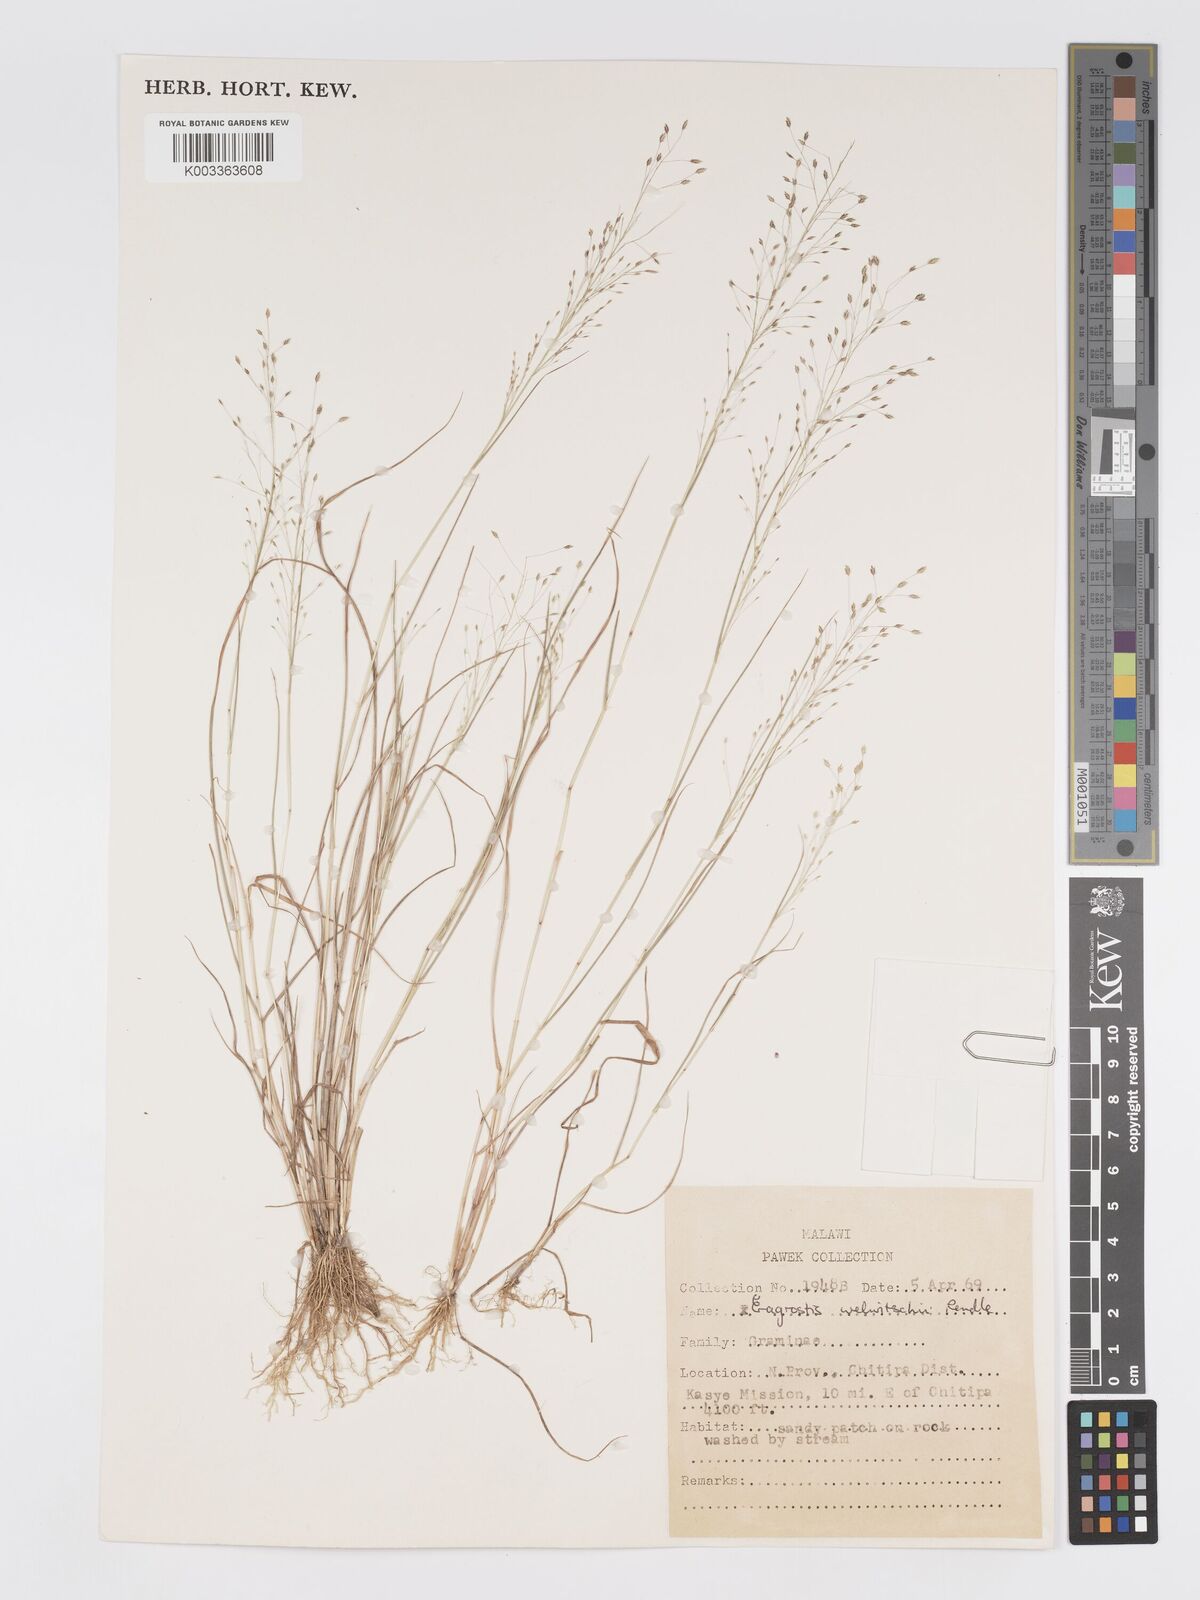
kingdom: Plantae
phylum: Tracheophyta
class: Liliopsida
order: Poales
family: Poaceae
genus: Eragrostis
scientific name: Eragrostis welwitschii
